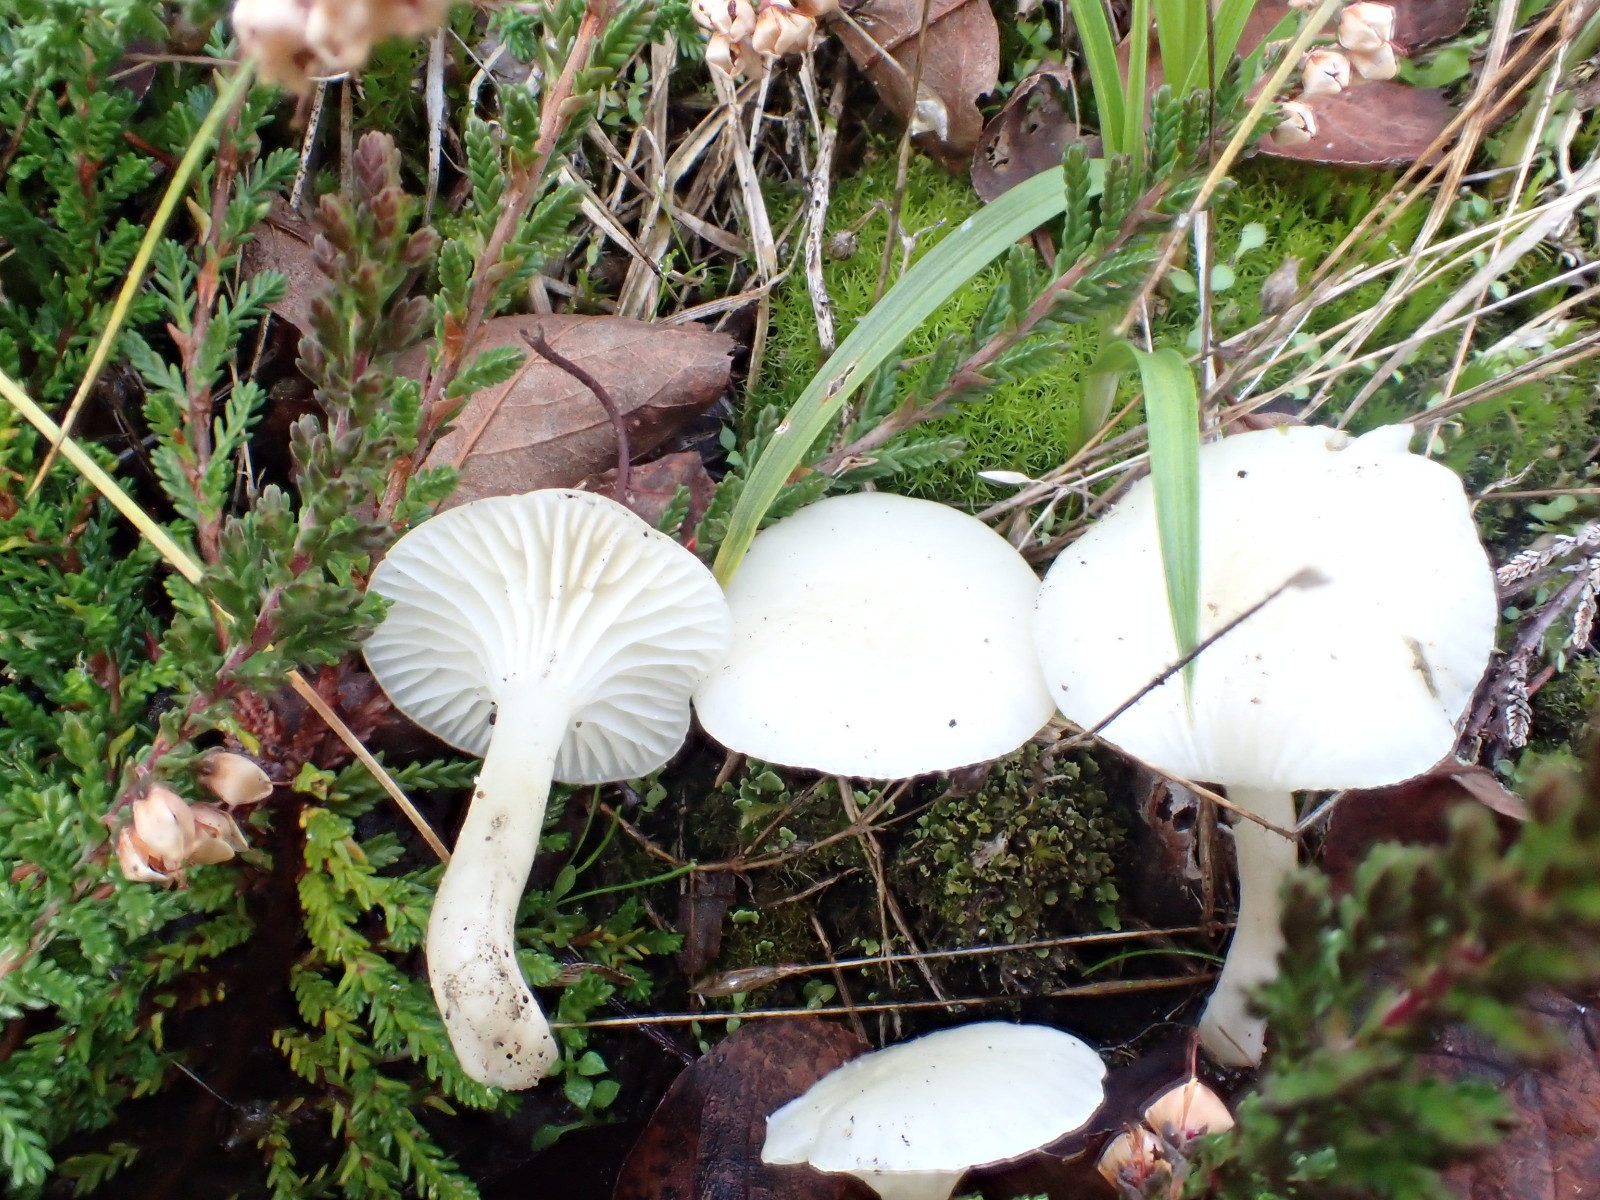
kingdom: Fungi
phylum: Basidiomycota
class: Agaricomycetes
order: Agaricales
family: Hygrophoraceae
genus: Cuphophyllus
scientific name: Cuphophyllus virgineus
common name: snehvid vokshat
